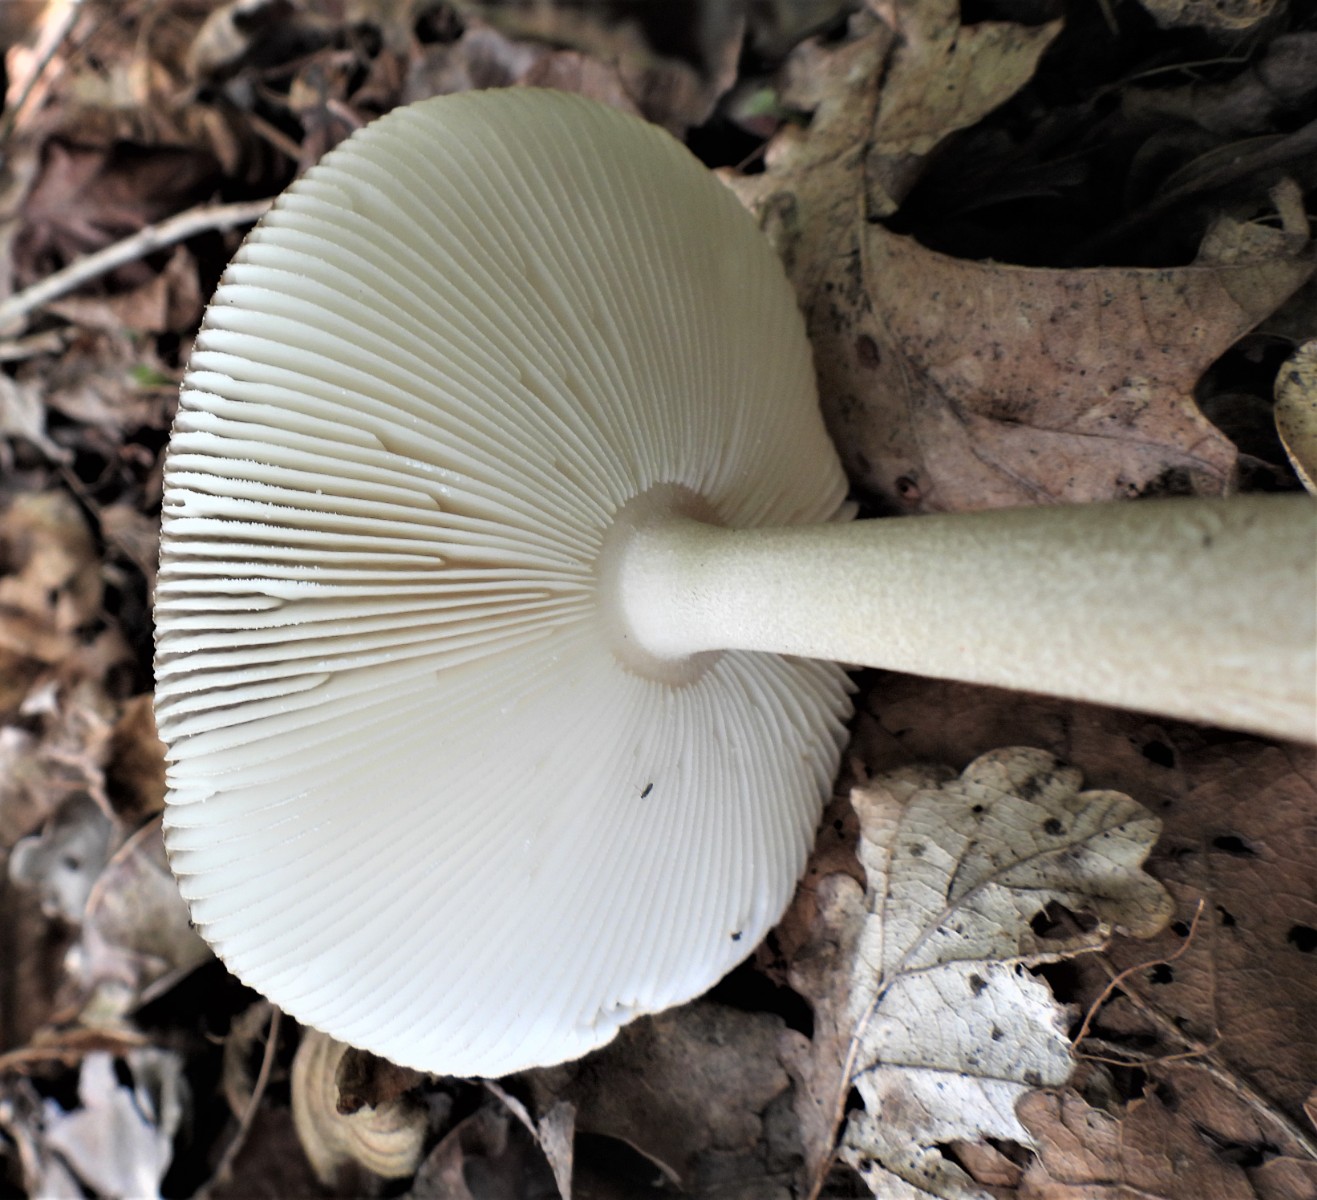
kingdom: Fungi
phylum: Basidiomycota
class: Agaricomycetes
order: Agaricales
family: Amanitaceae
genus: Amanita
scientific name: Amanita
